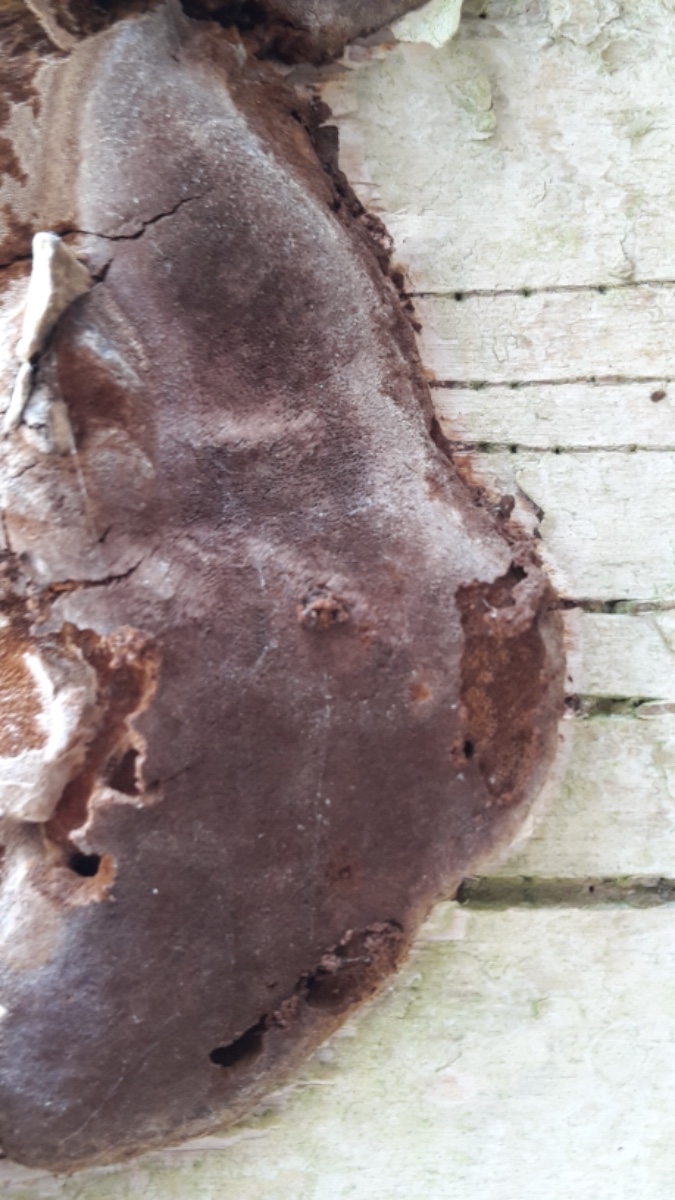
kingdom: Fungi
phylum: Basidiomycota
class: Agaricomycetes
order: Hymenochaetales
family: Hymenochaetaceae
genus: Phellinus
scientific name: Phellinus laevigatus
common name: glat ildporesvamp
